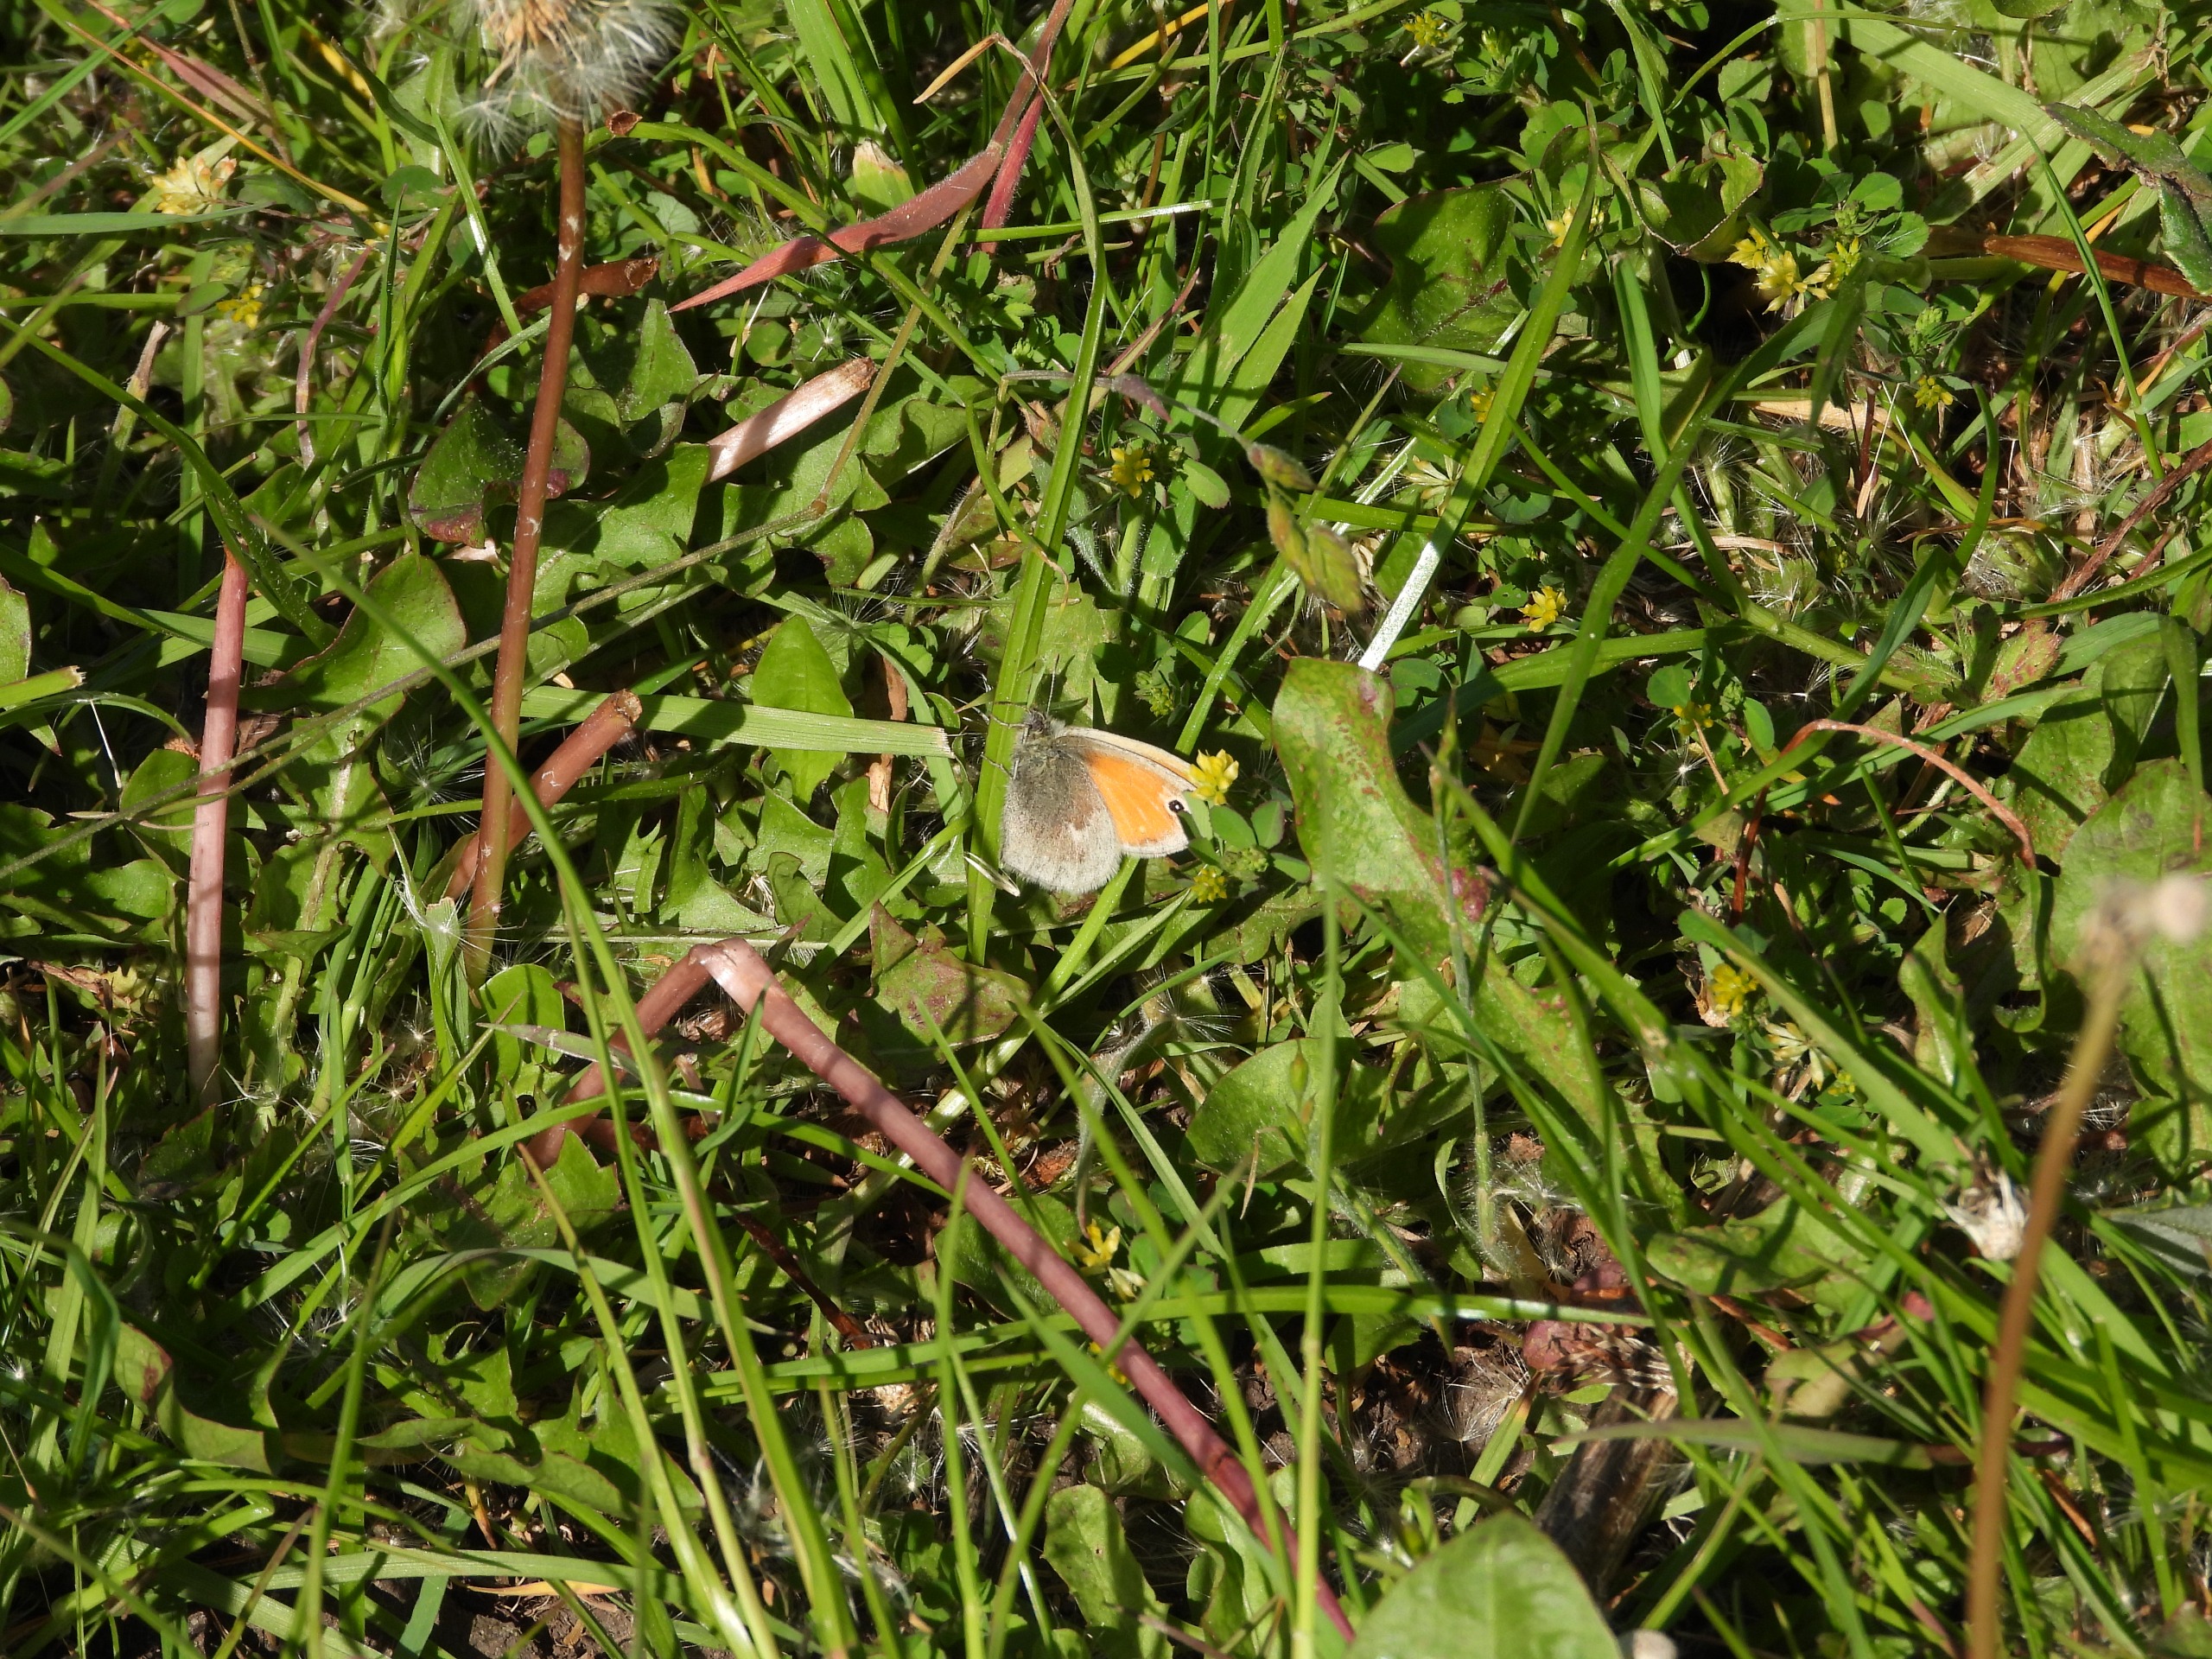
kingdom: Animalia
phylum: Arthropoda
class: Insecta
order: Lepidoptera
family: Nymphalidae
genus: Coenonympha
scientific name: Coenonympha pamphilus
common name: Okkergul randøje
